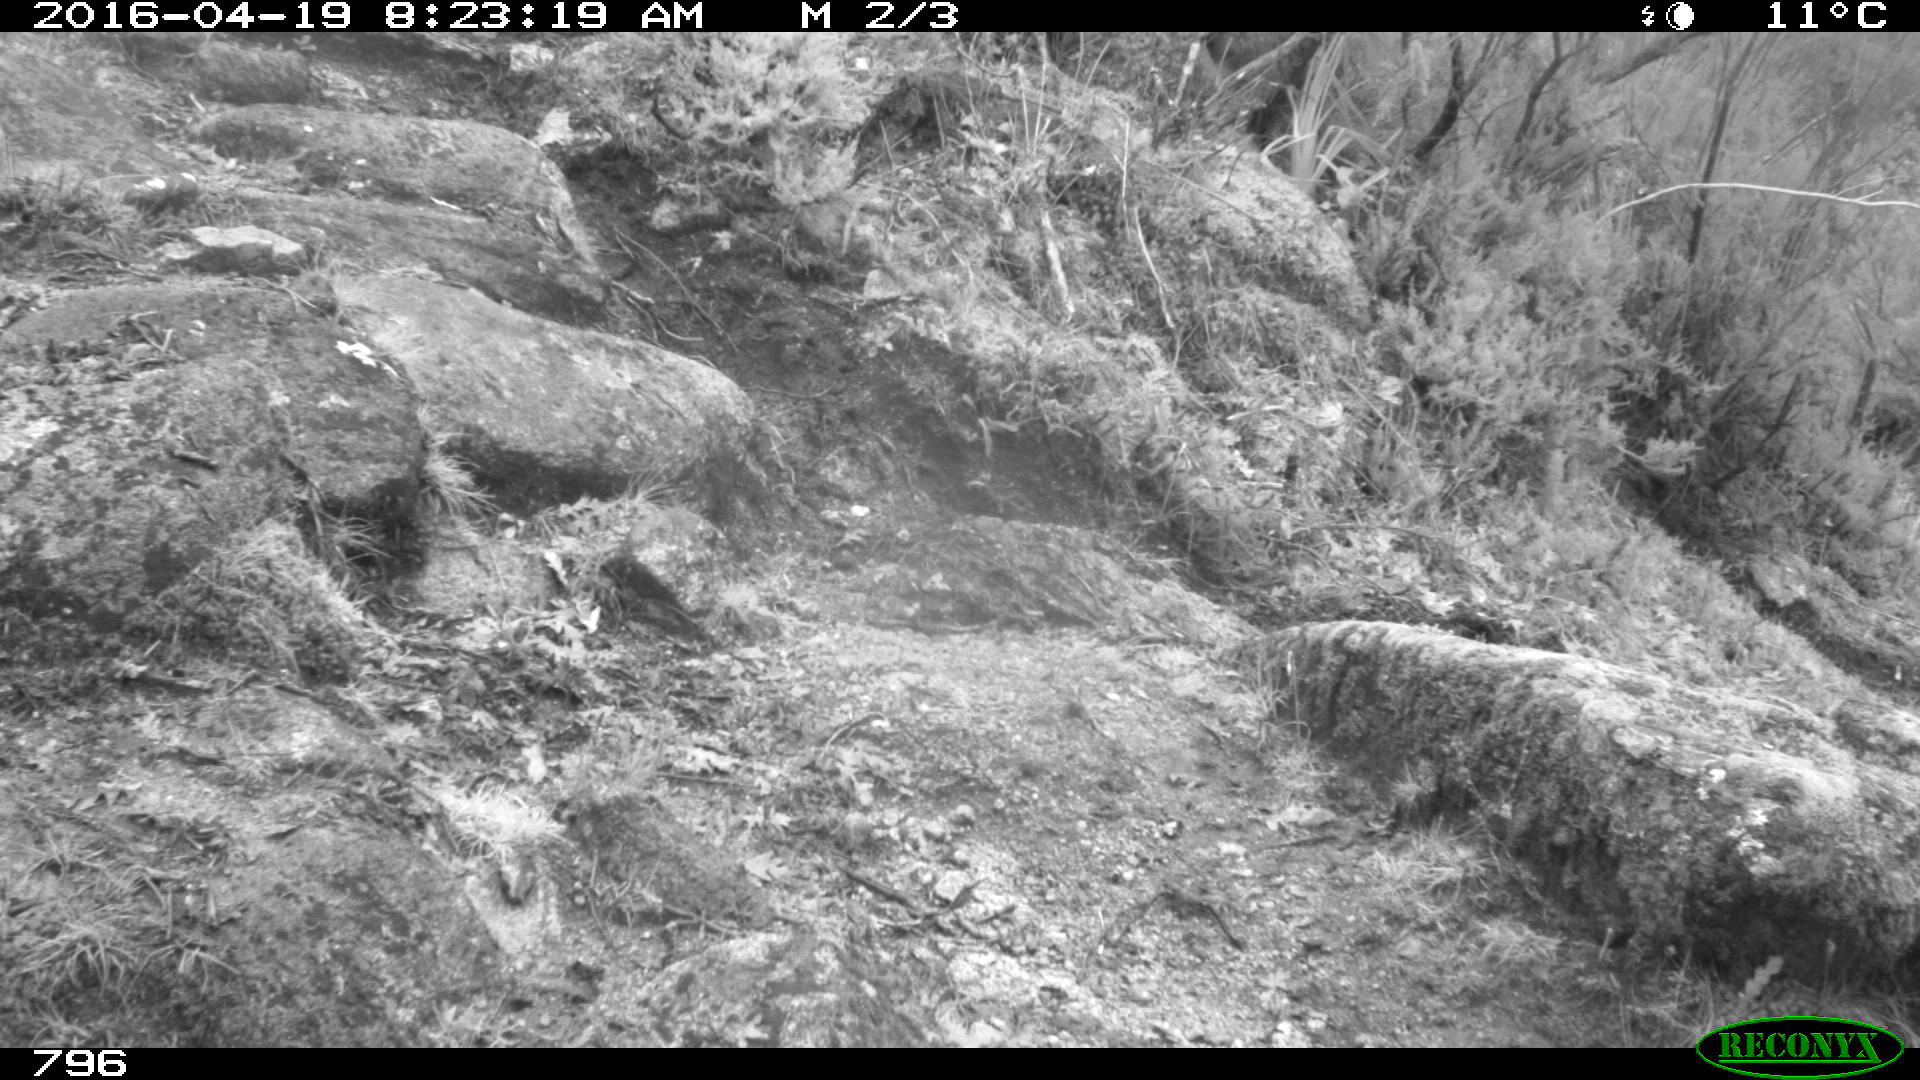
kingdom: Animalia
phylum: Chordata
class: Mammalia
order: Artiodactyla
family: Bovidae
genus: Bos
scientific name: Bos taurus
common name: Domesticated cattle
